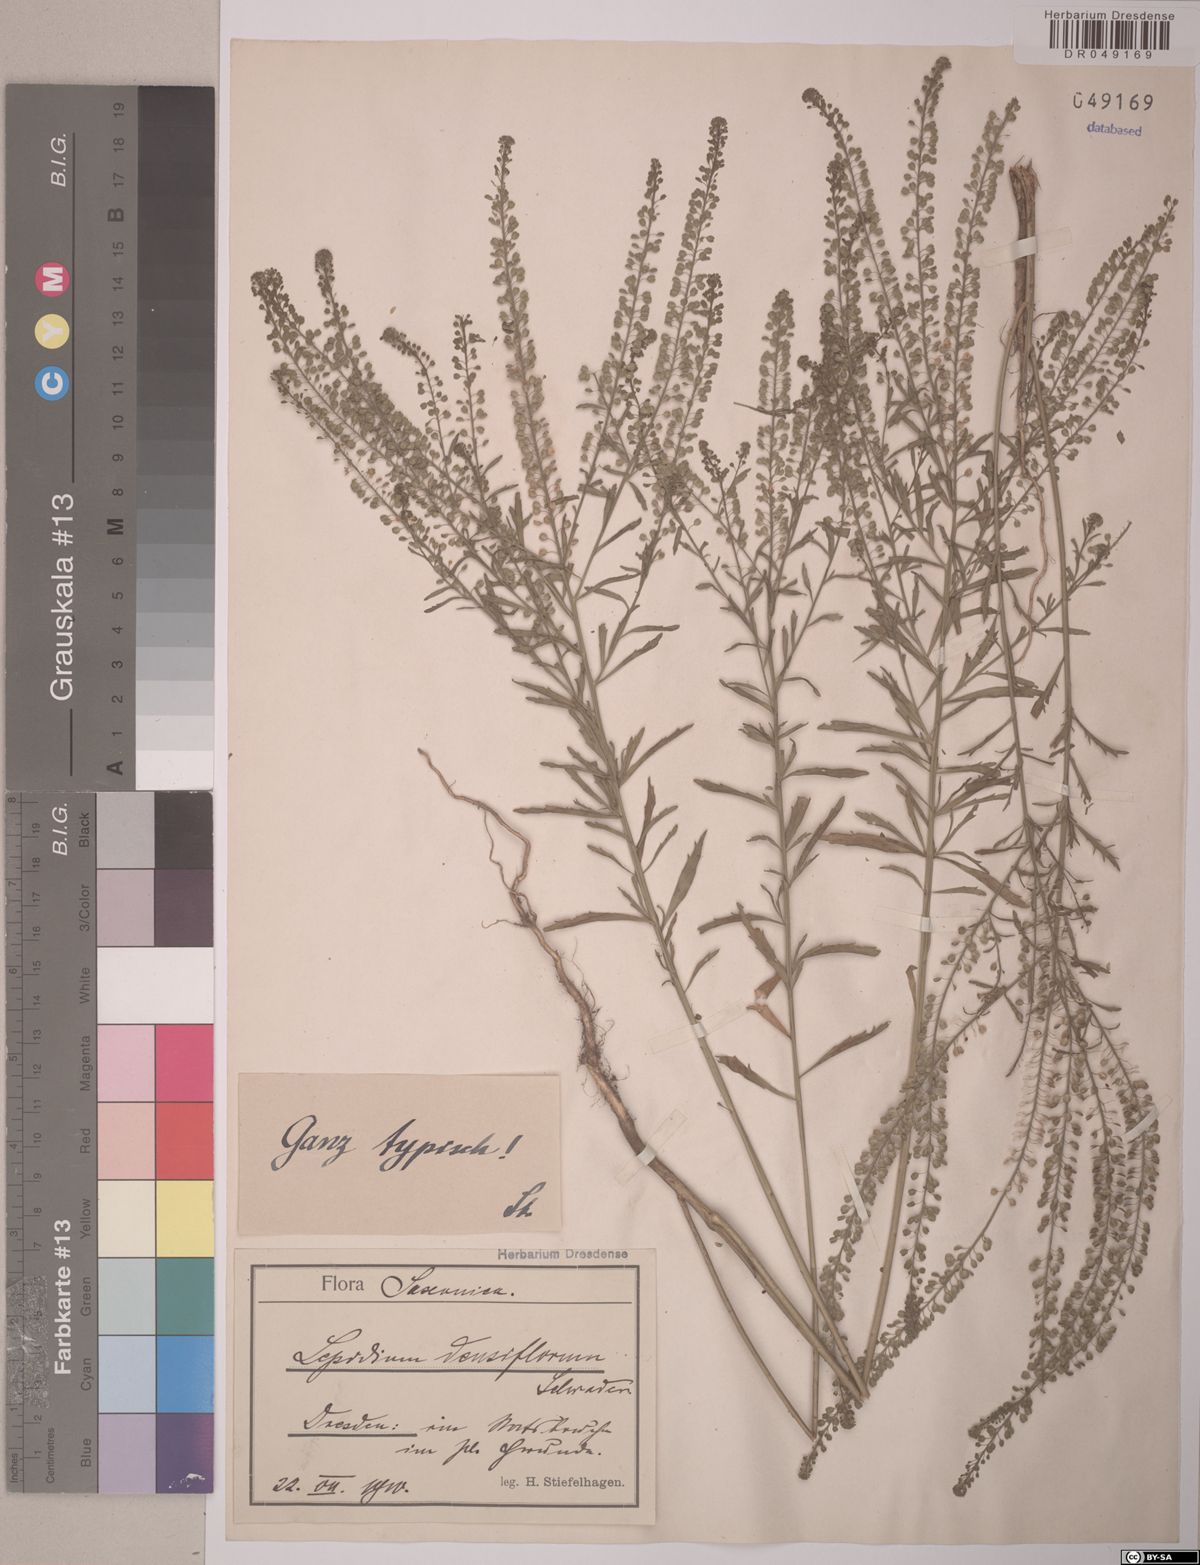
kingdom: Plantae
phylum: Tracheophyta
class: Magnoliopsida
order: Brassicales
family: Brassicaceae
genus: Lepidium
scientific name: Lepidium densiflorum
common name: Miner's pepperwort
